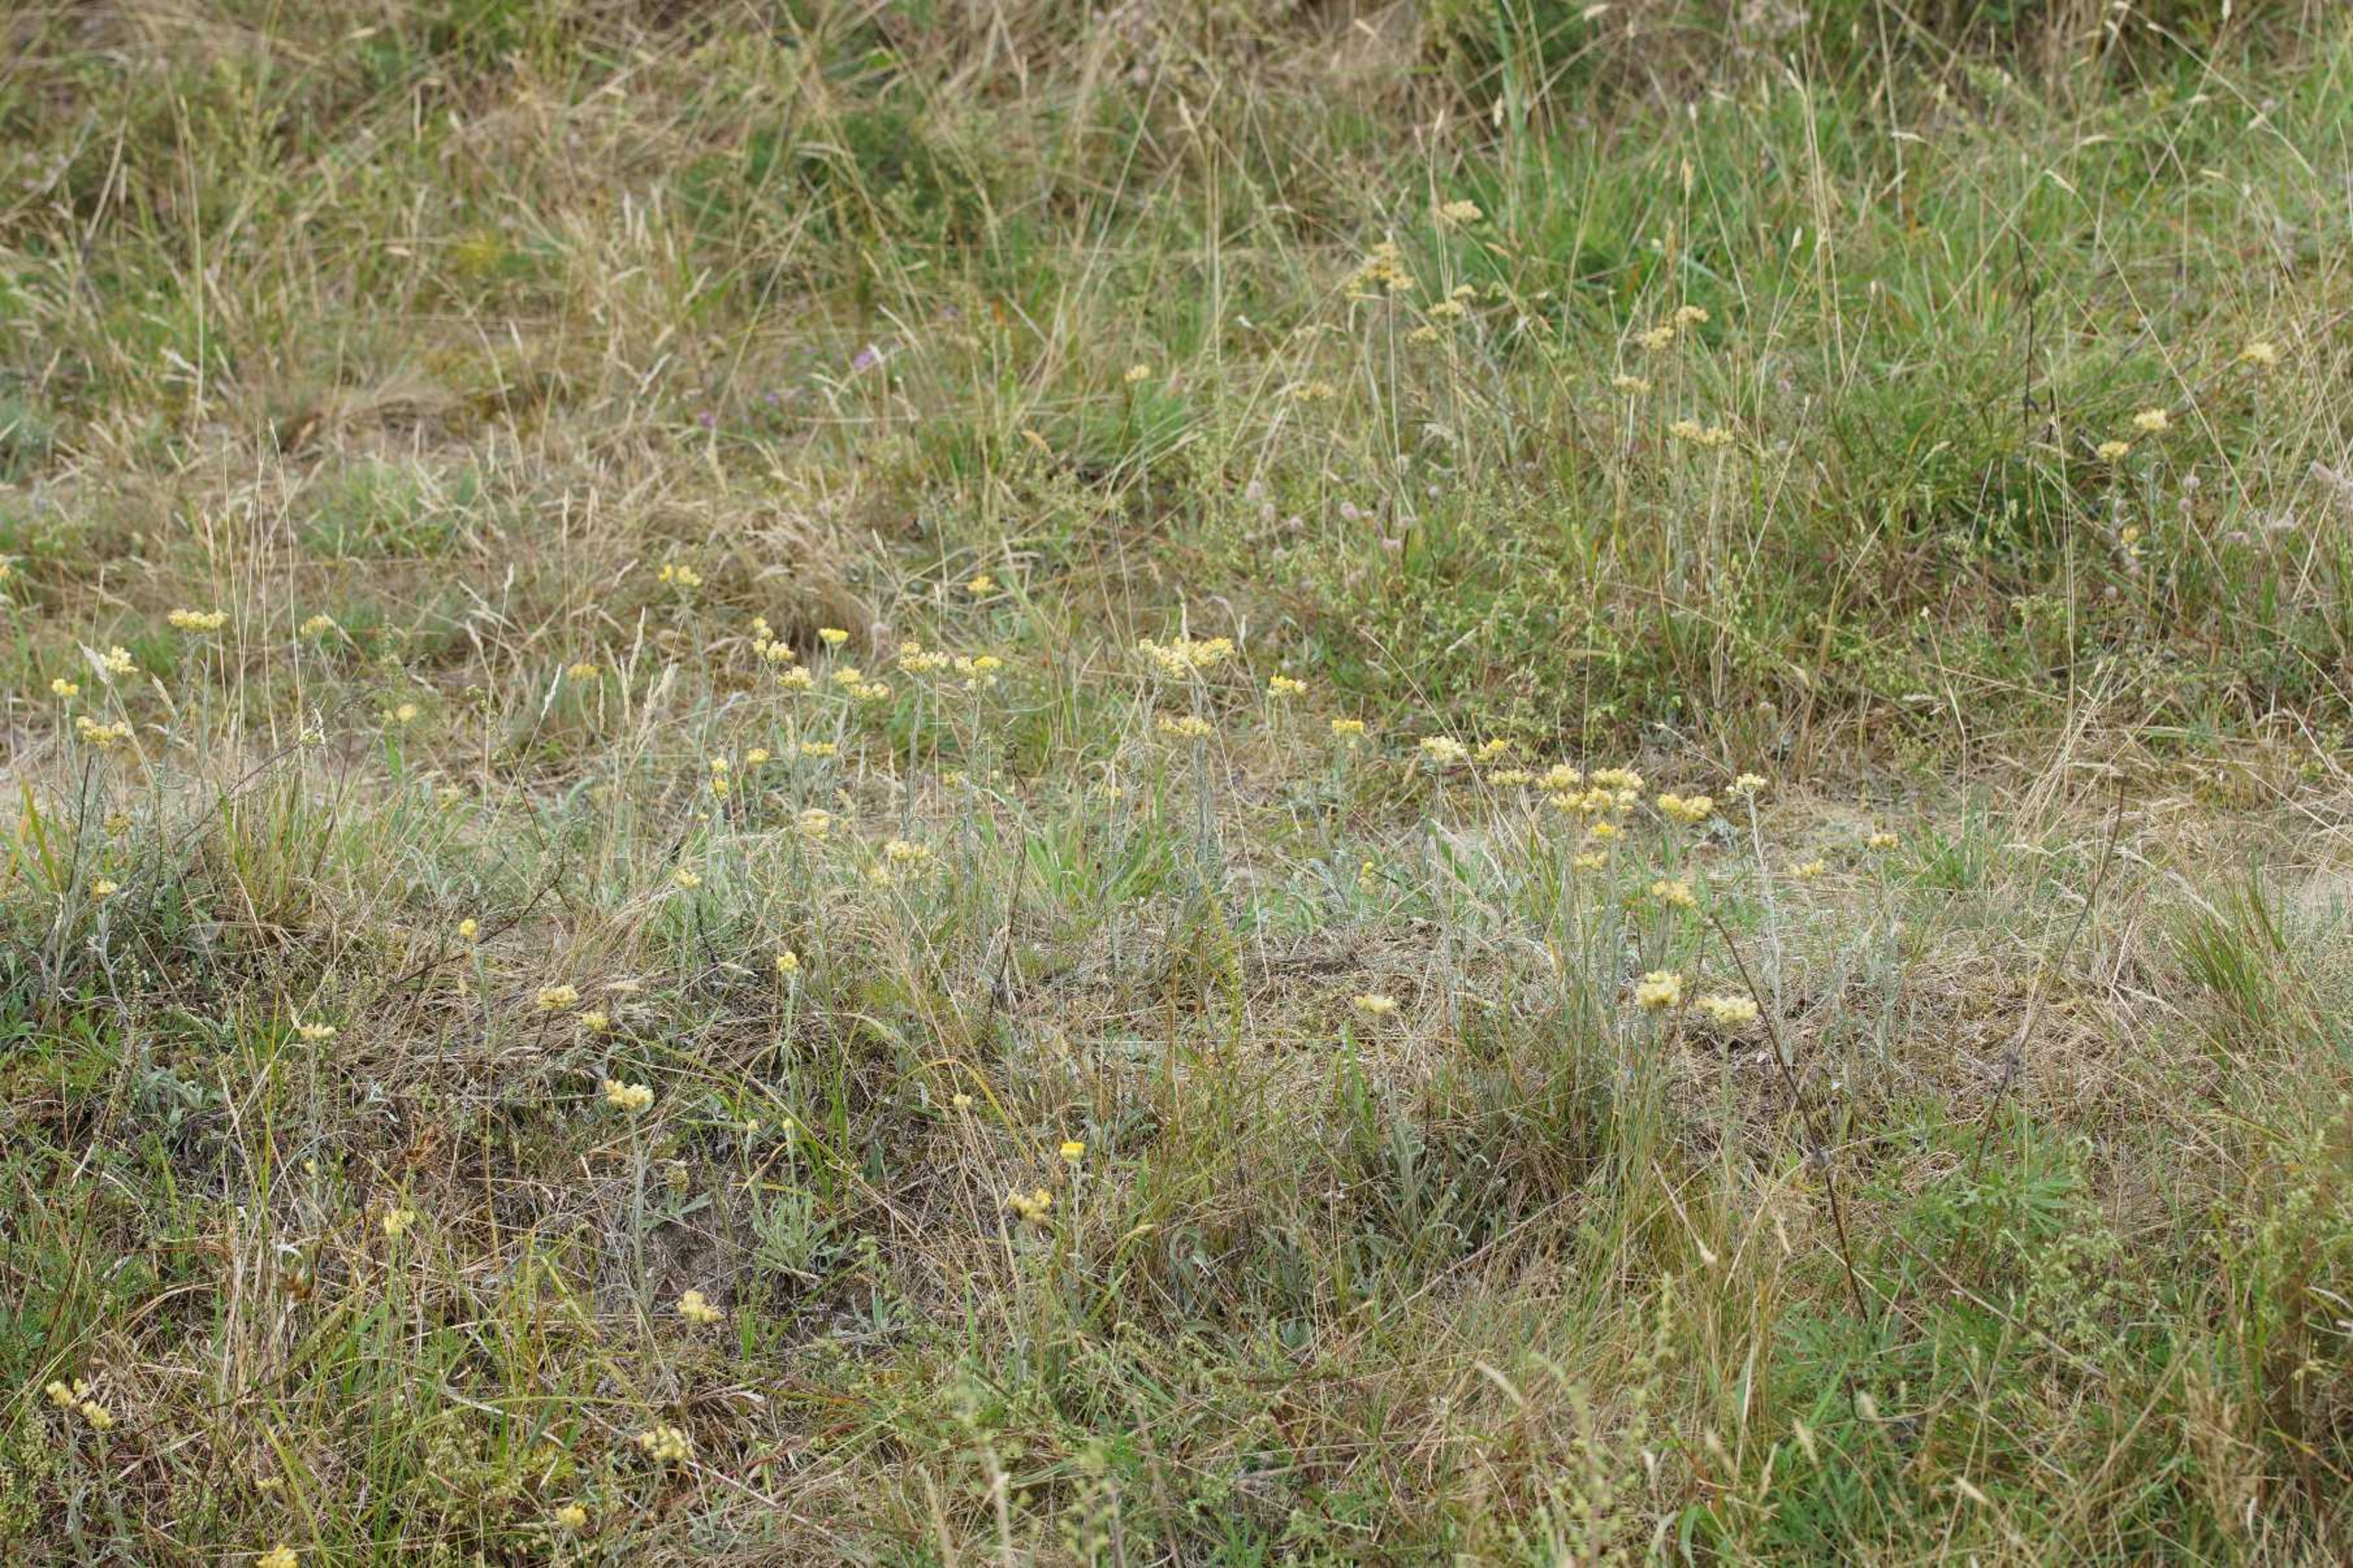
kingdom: Plantae
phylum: Tracheophyta
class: Magnoliopsida
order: Asterales
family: Asteraceae
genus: Helichrysum
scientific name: Helichrysum arenarium
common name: Gul evighedsblomst
